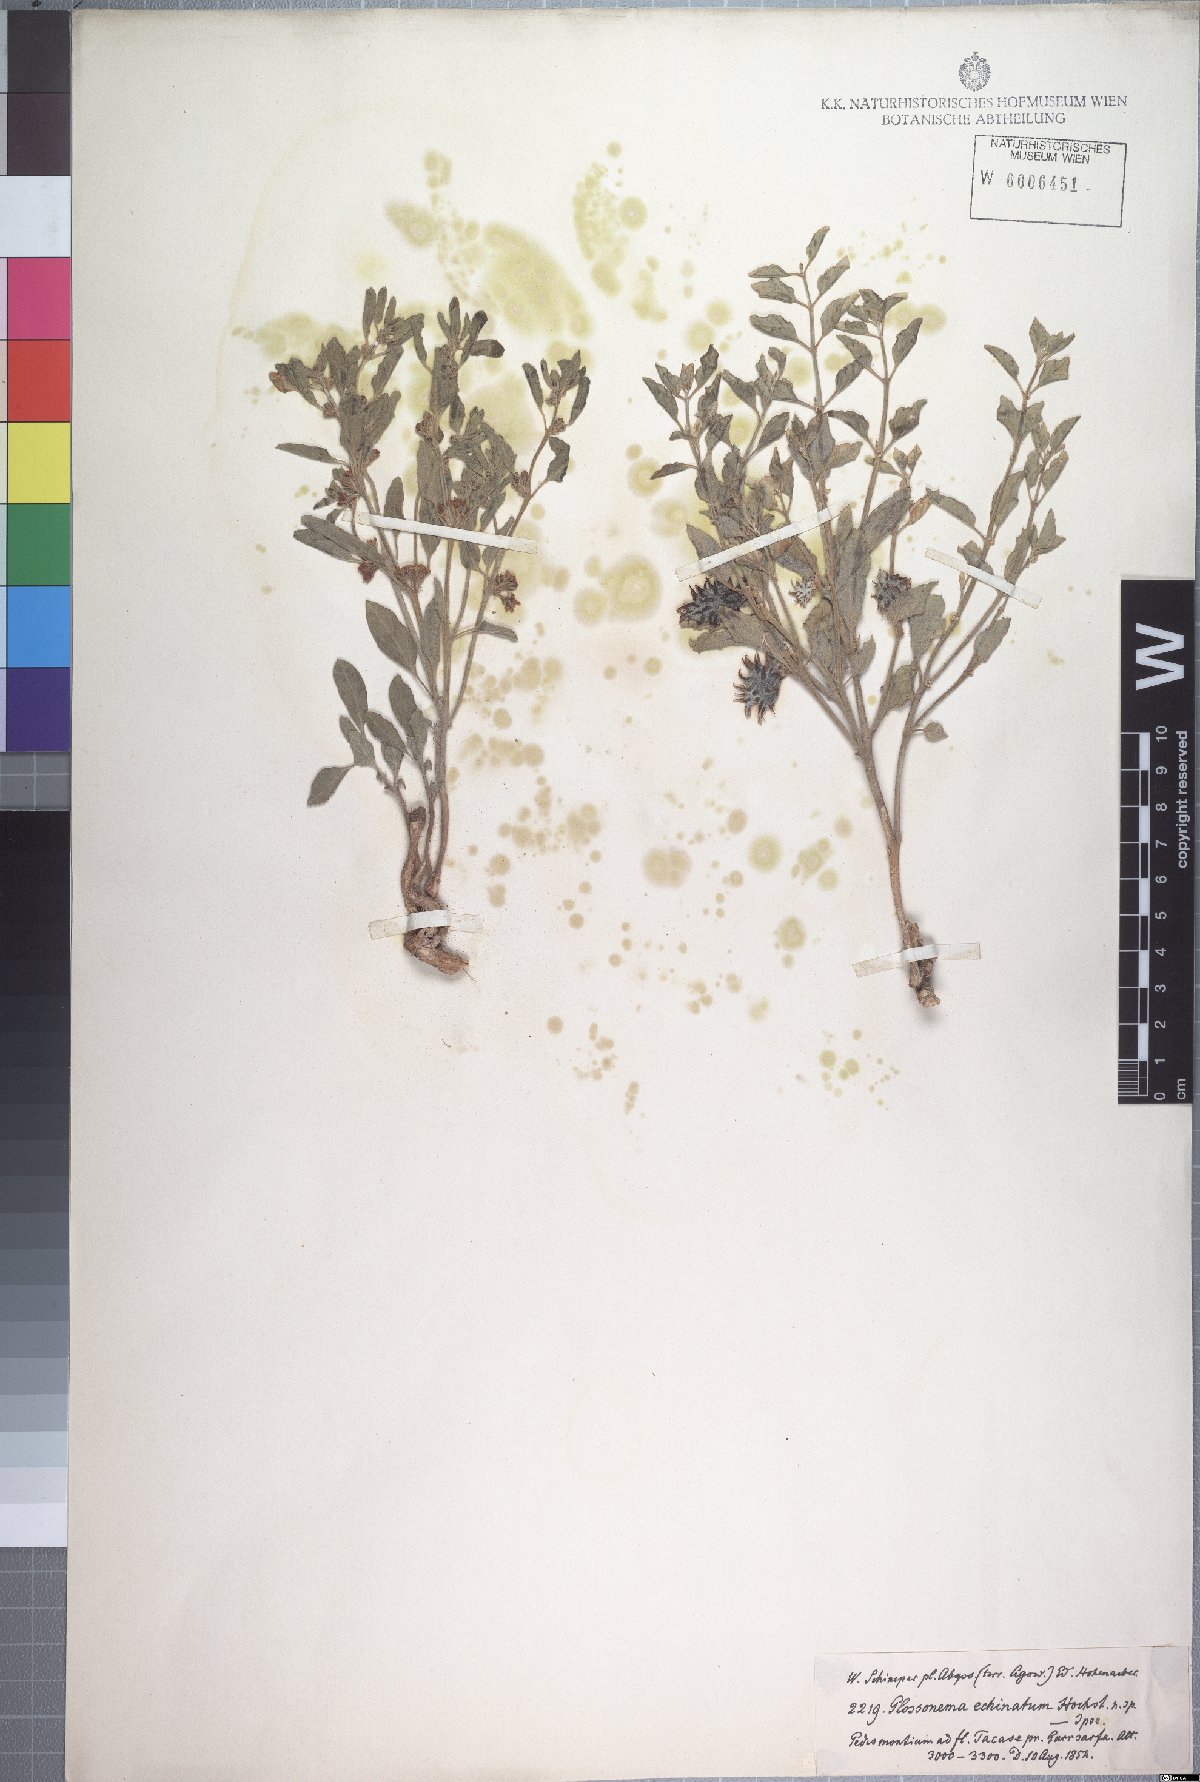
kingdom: Plantae
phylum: Tracheophyta
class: Magnoliopsida
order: Gentianales
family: Apocynaceae
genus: Cynanchum
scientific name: Cynanchum boveanum
